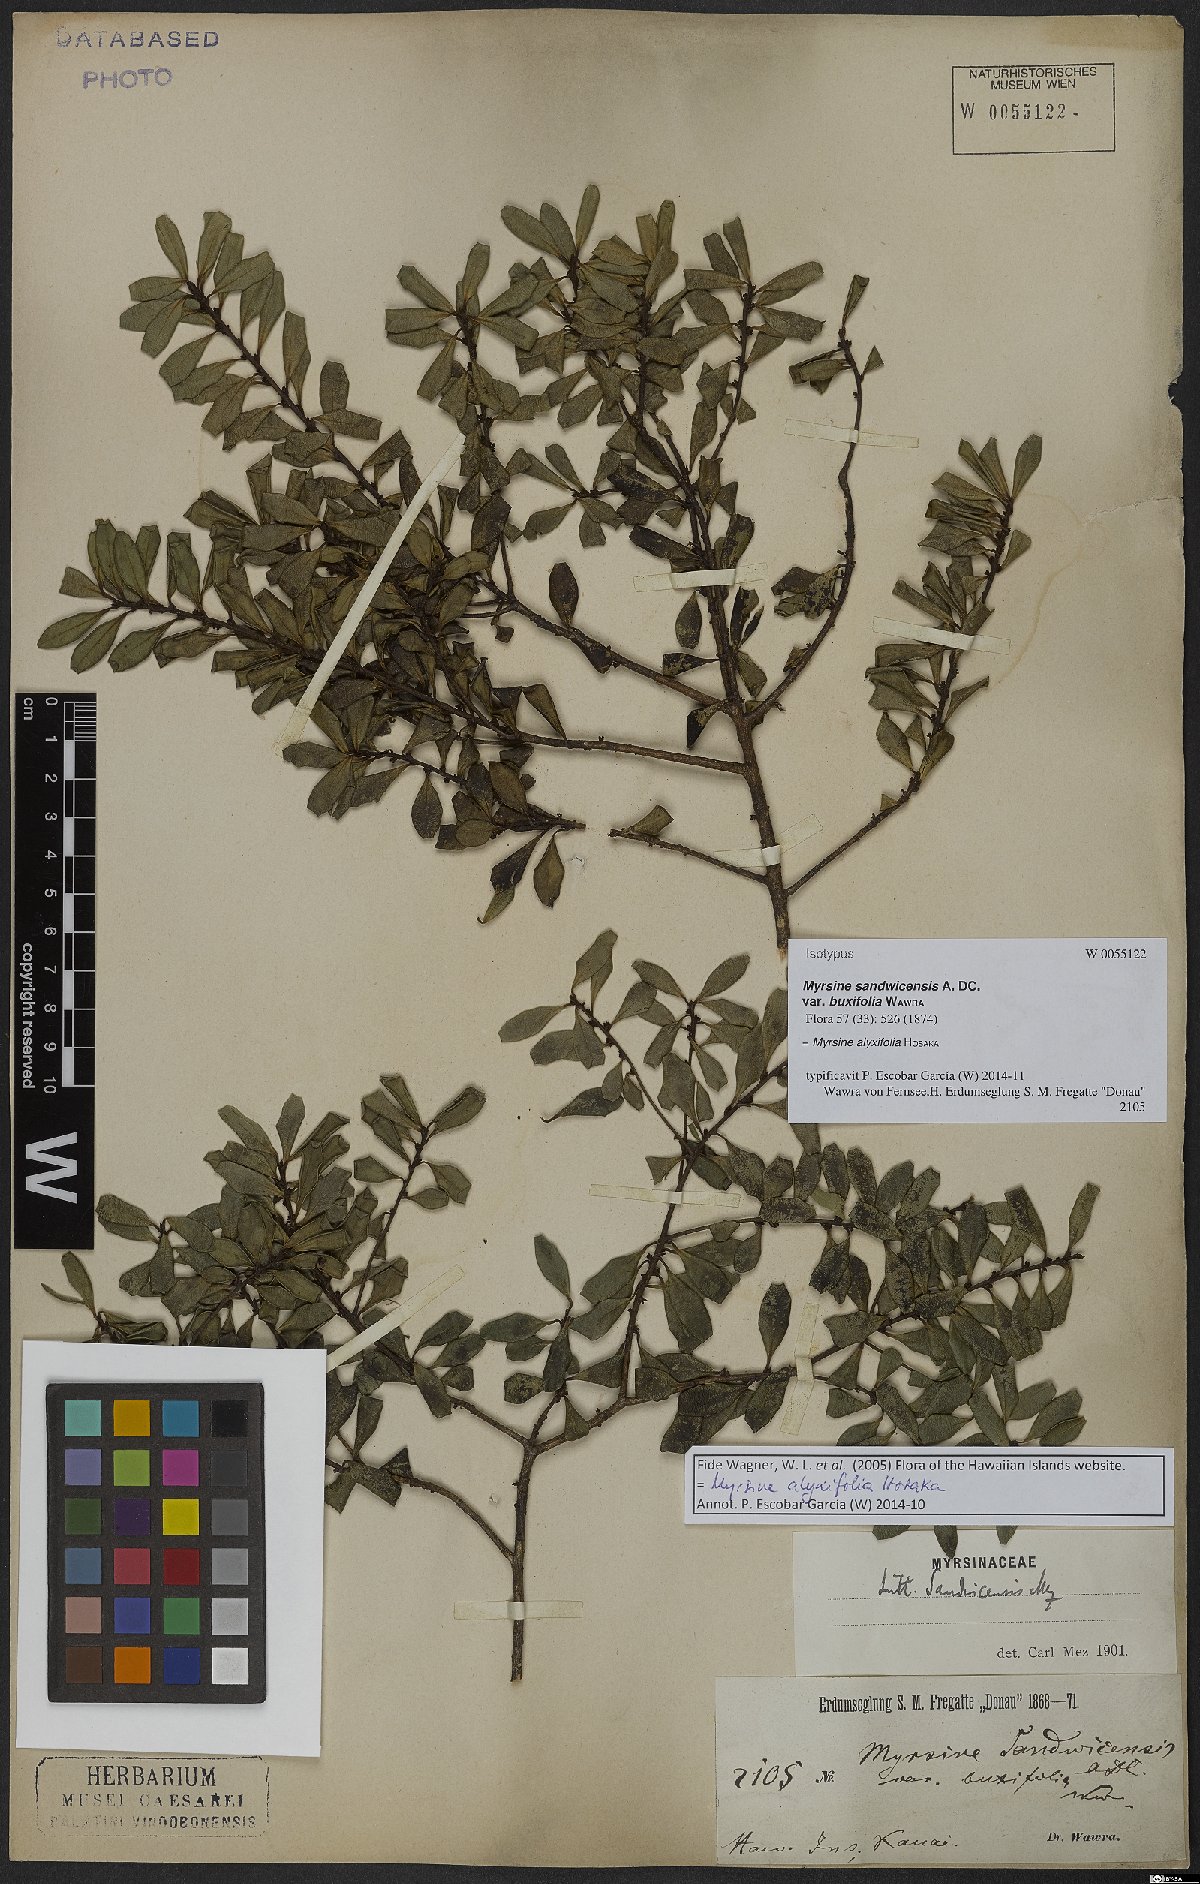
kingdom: Plantae
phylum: Tracheophyta
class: Magnoliopsida
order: Ericales
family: Primulaceae
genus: Myrsine
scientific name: Myrsine alyxifolia
